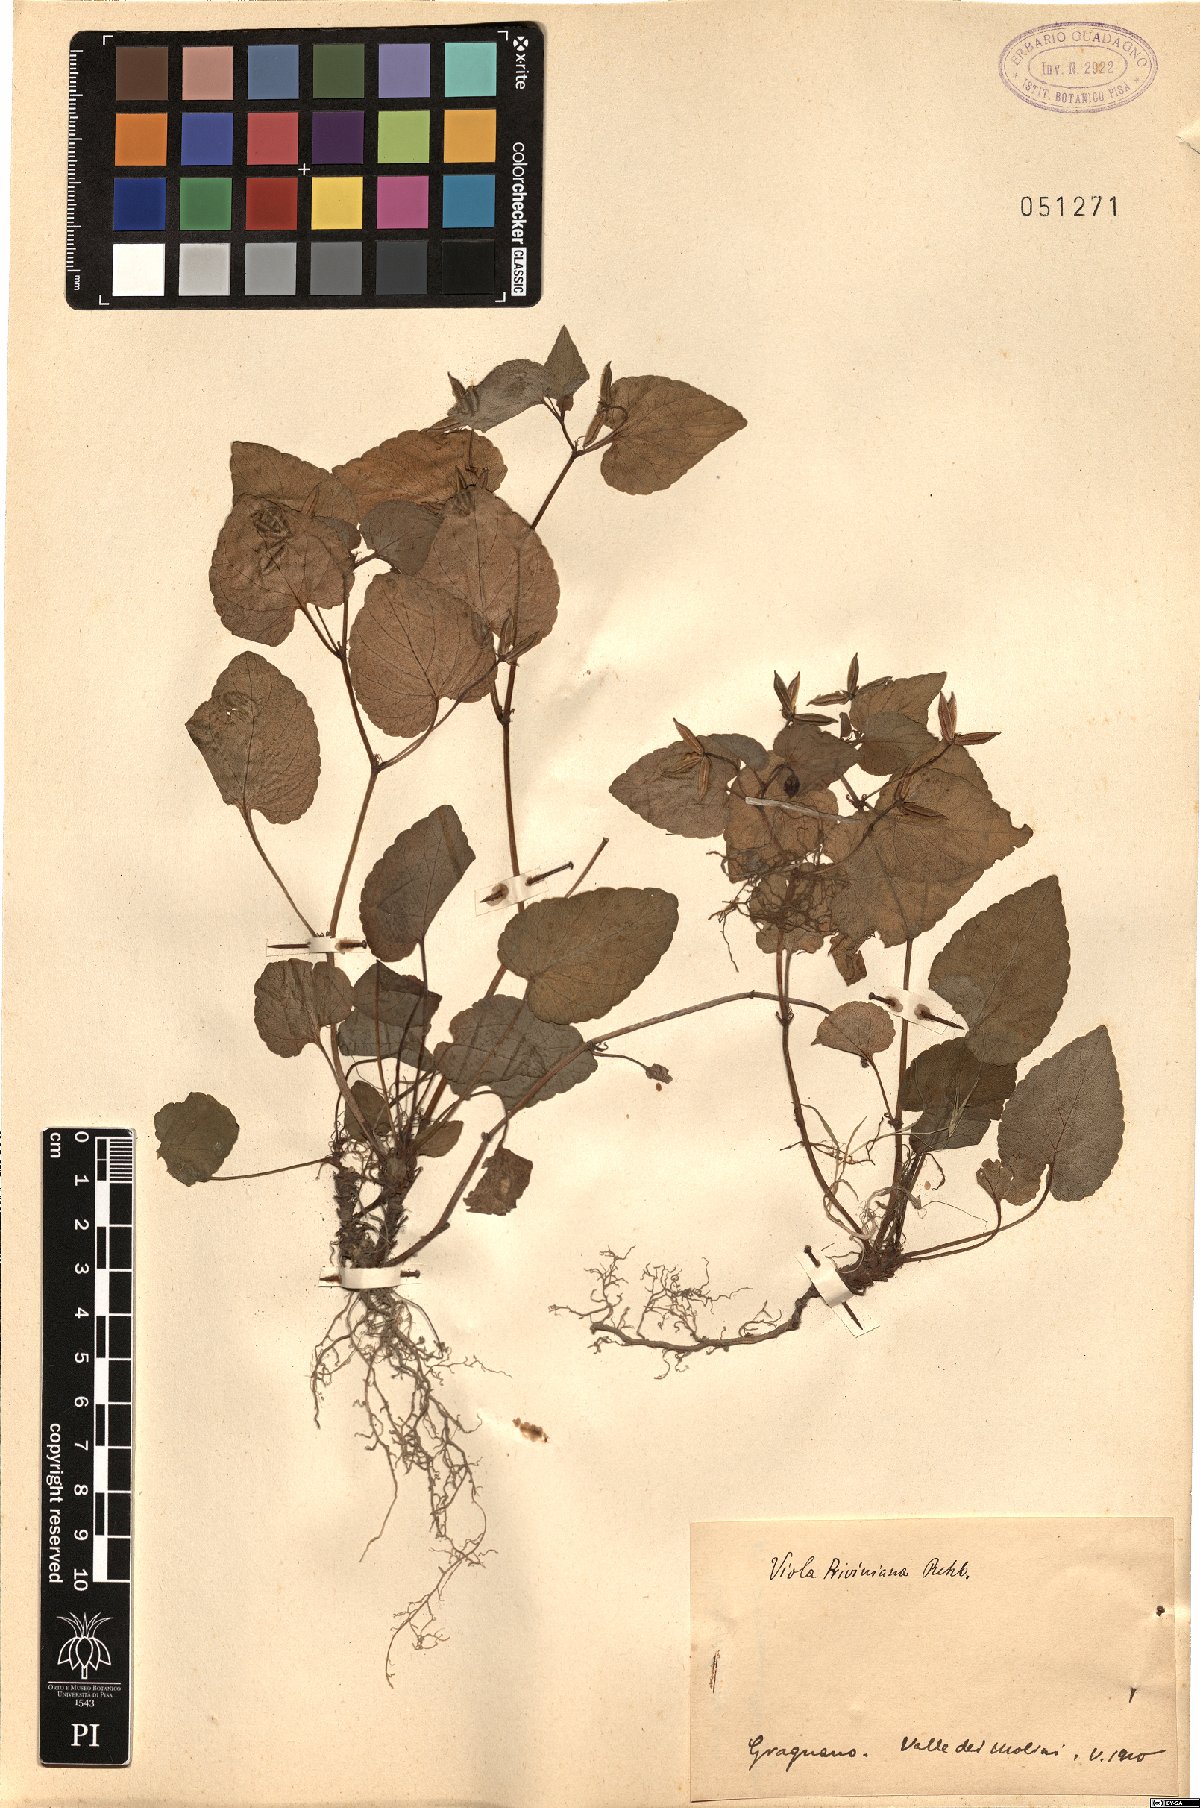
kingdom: Plantae
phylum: Tracheophyta
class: Magnoliopsida
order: Malpighiales
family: Violaceae
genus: Viola
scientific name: Viola riviniana
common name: Common dog-violet
